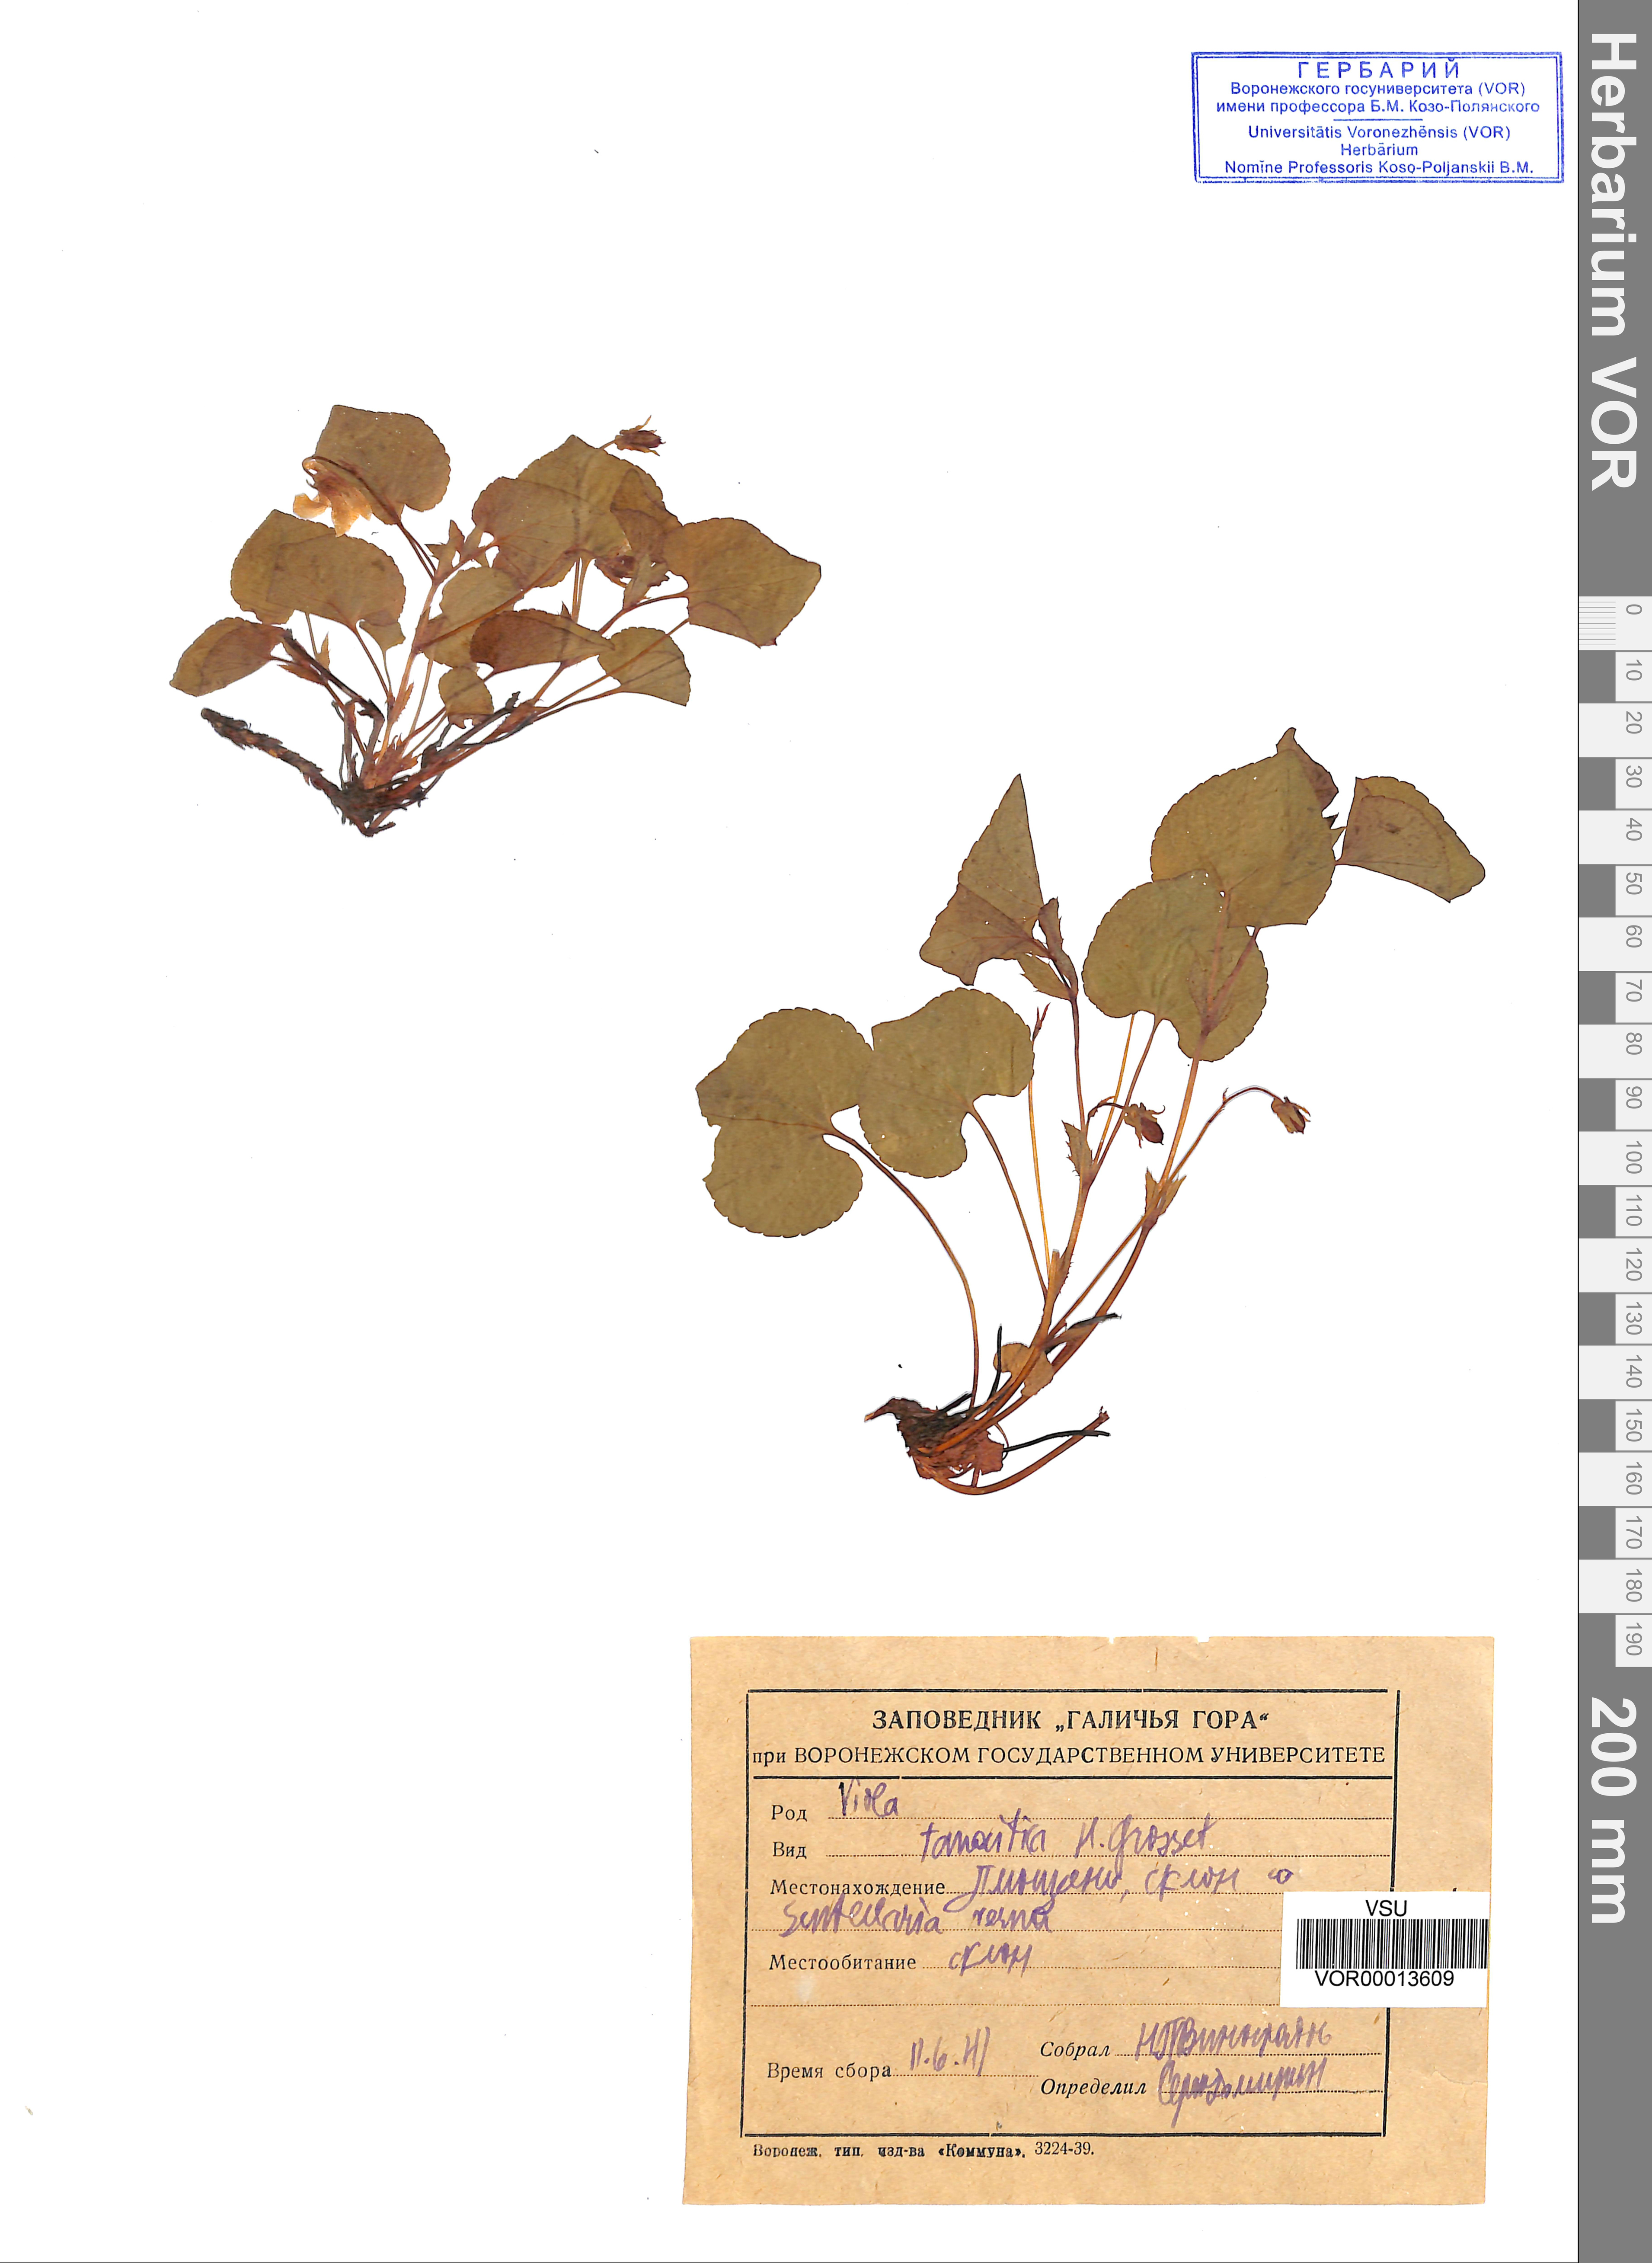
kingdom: Plantae
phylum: Tracheophyta
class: Magnoliopsida
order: Malpighiales
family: Violaceae
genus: Viola
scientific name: Viola tanaitica
